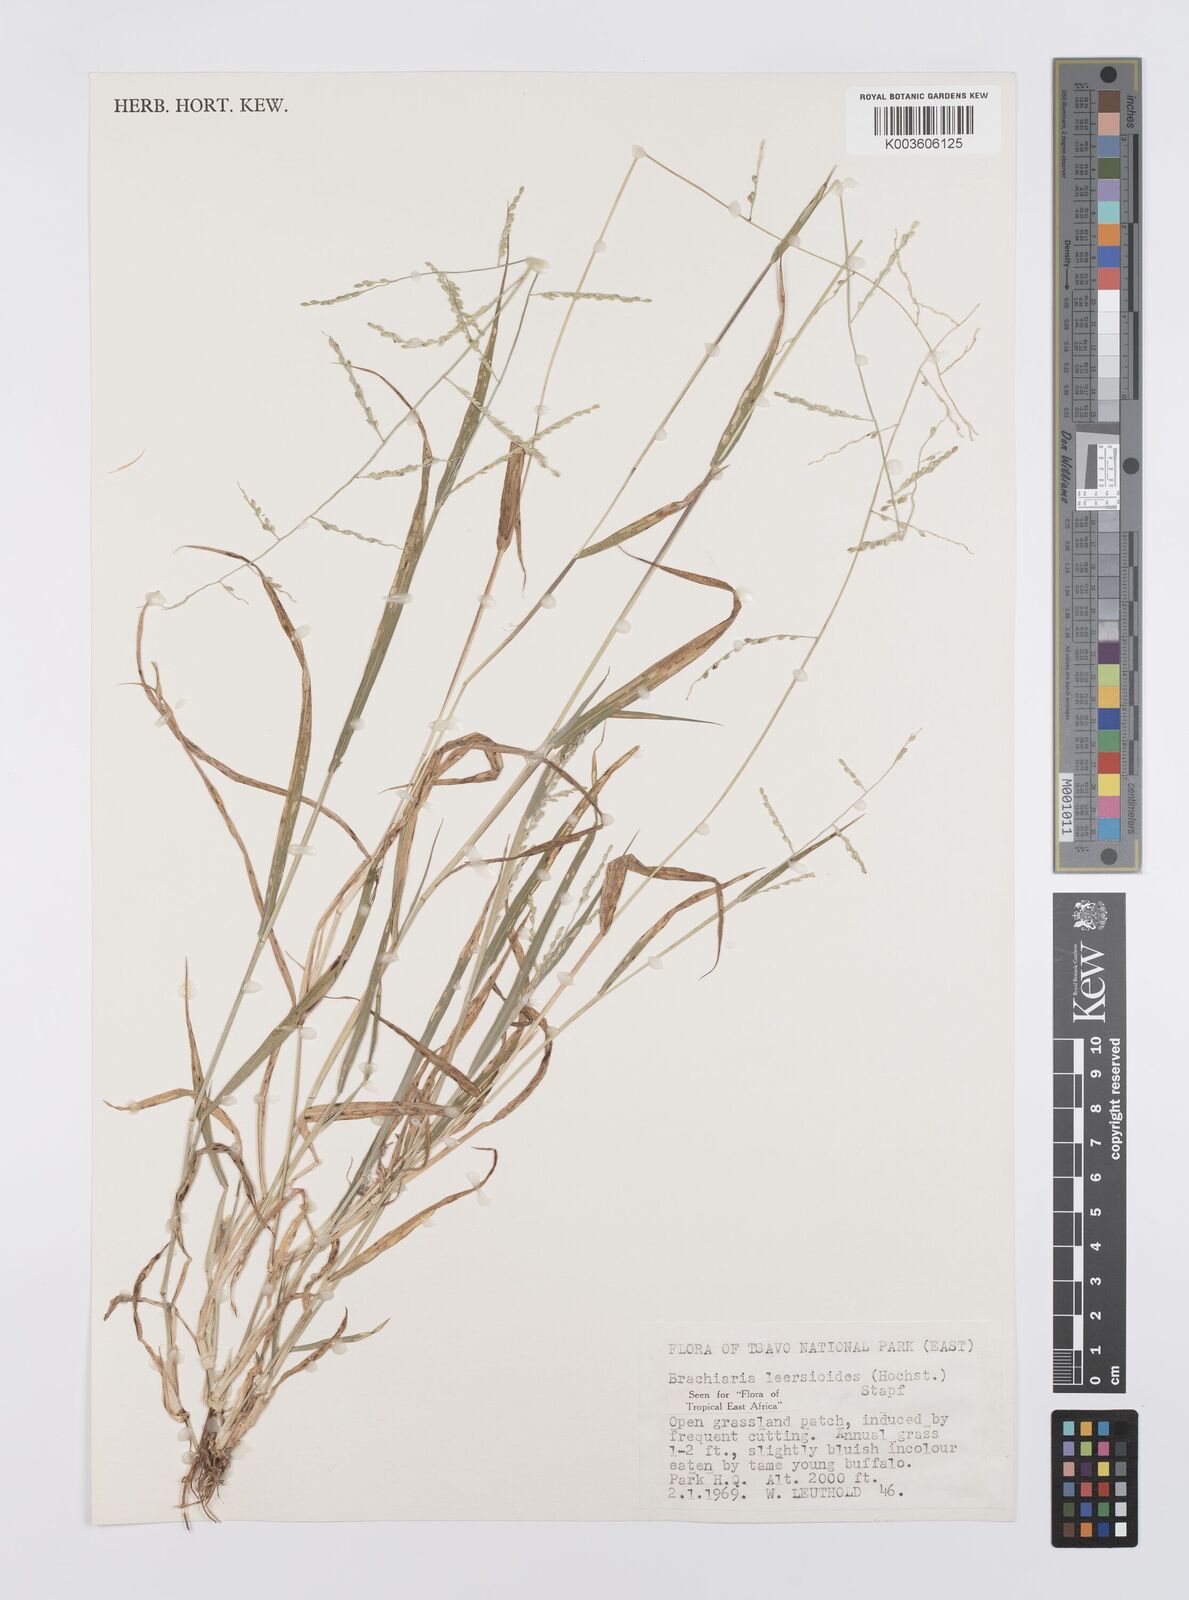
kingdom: Plantae
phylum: Tracheophyta
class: Liliopsida
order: Poales
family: Poaceae
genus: Urochloa
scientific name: Urochloa leersioides
